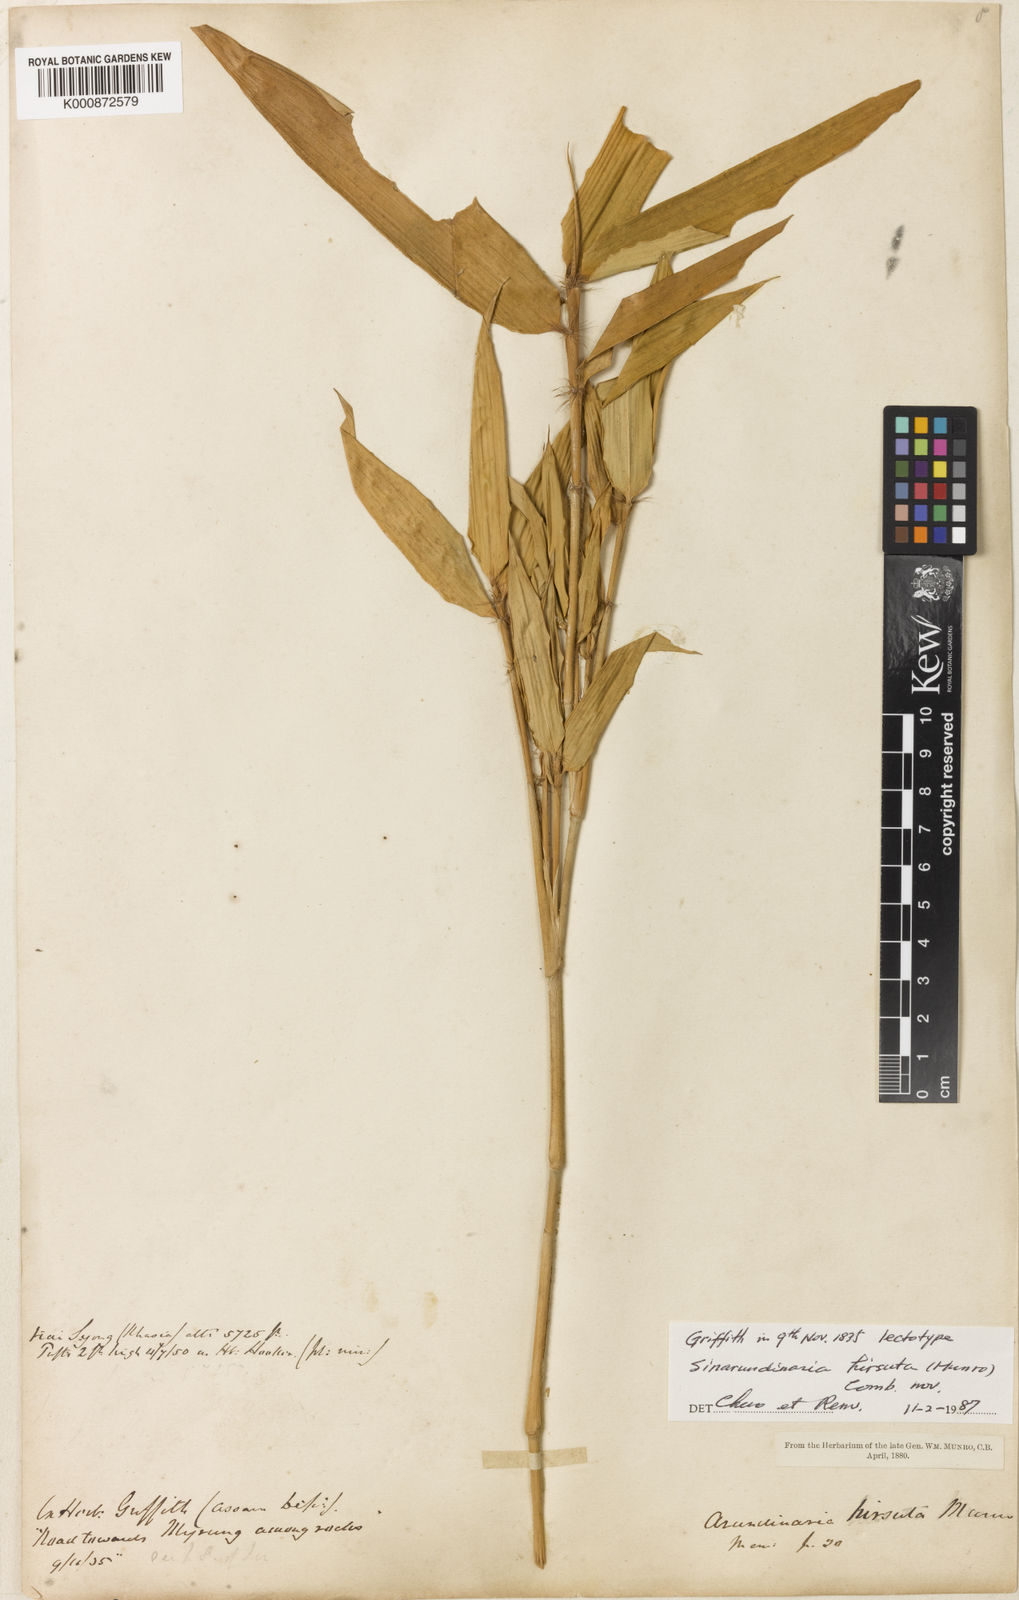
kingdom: Plantae
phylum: Tracheophyta
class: Liliopsida
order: Poales
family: Poaceae
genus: Yushania
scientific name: Yushania
